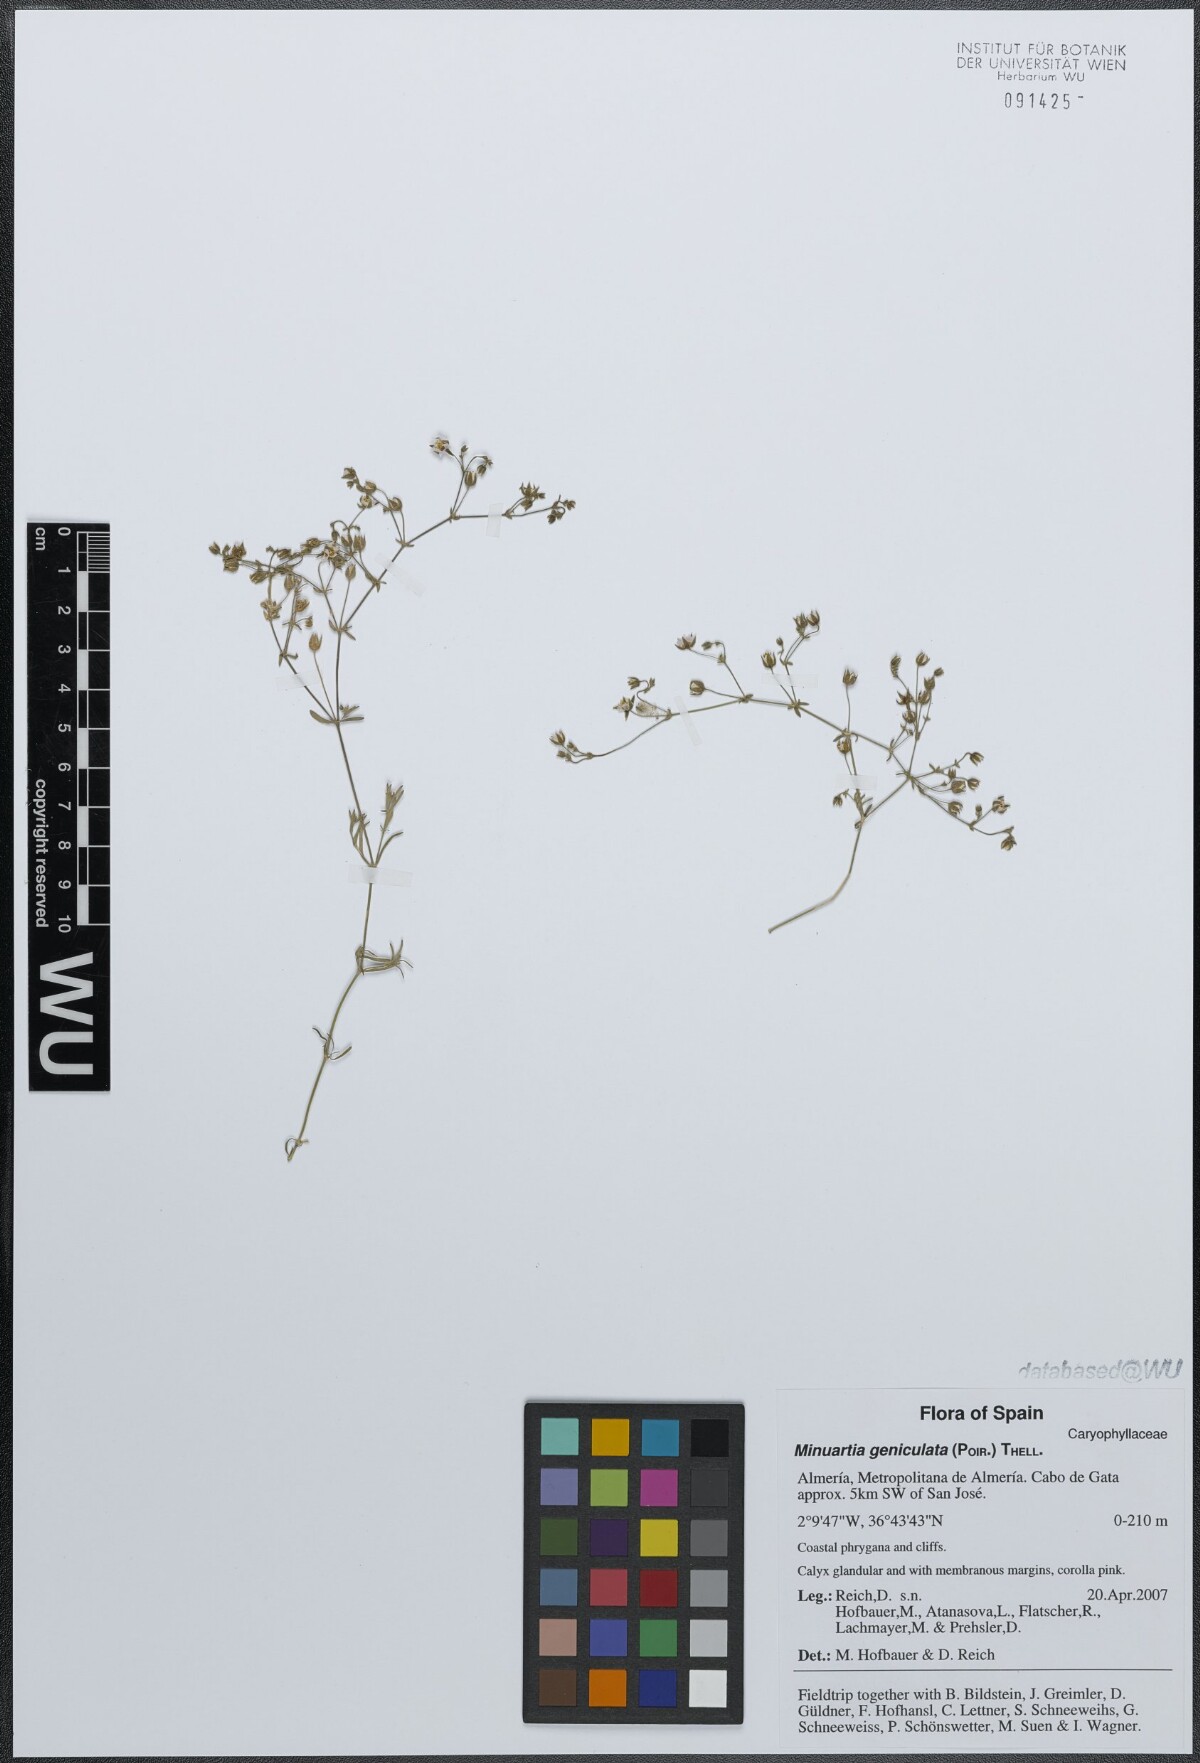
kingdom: Plantae
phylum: Tracheophyta
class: Magnoliopsida
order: Caryophyllales
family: Caryophyllaceae
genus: Rhodalsine
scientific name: Rhodalsine geniculata
